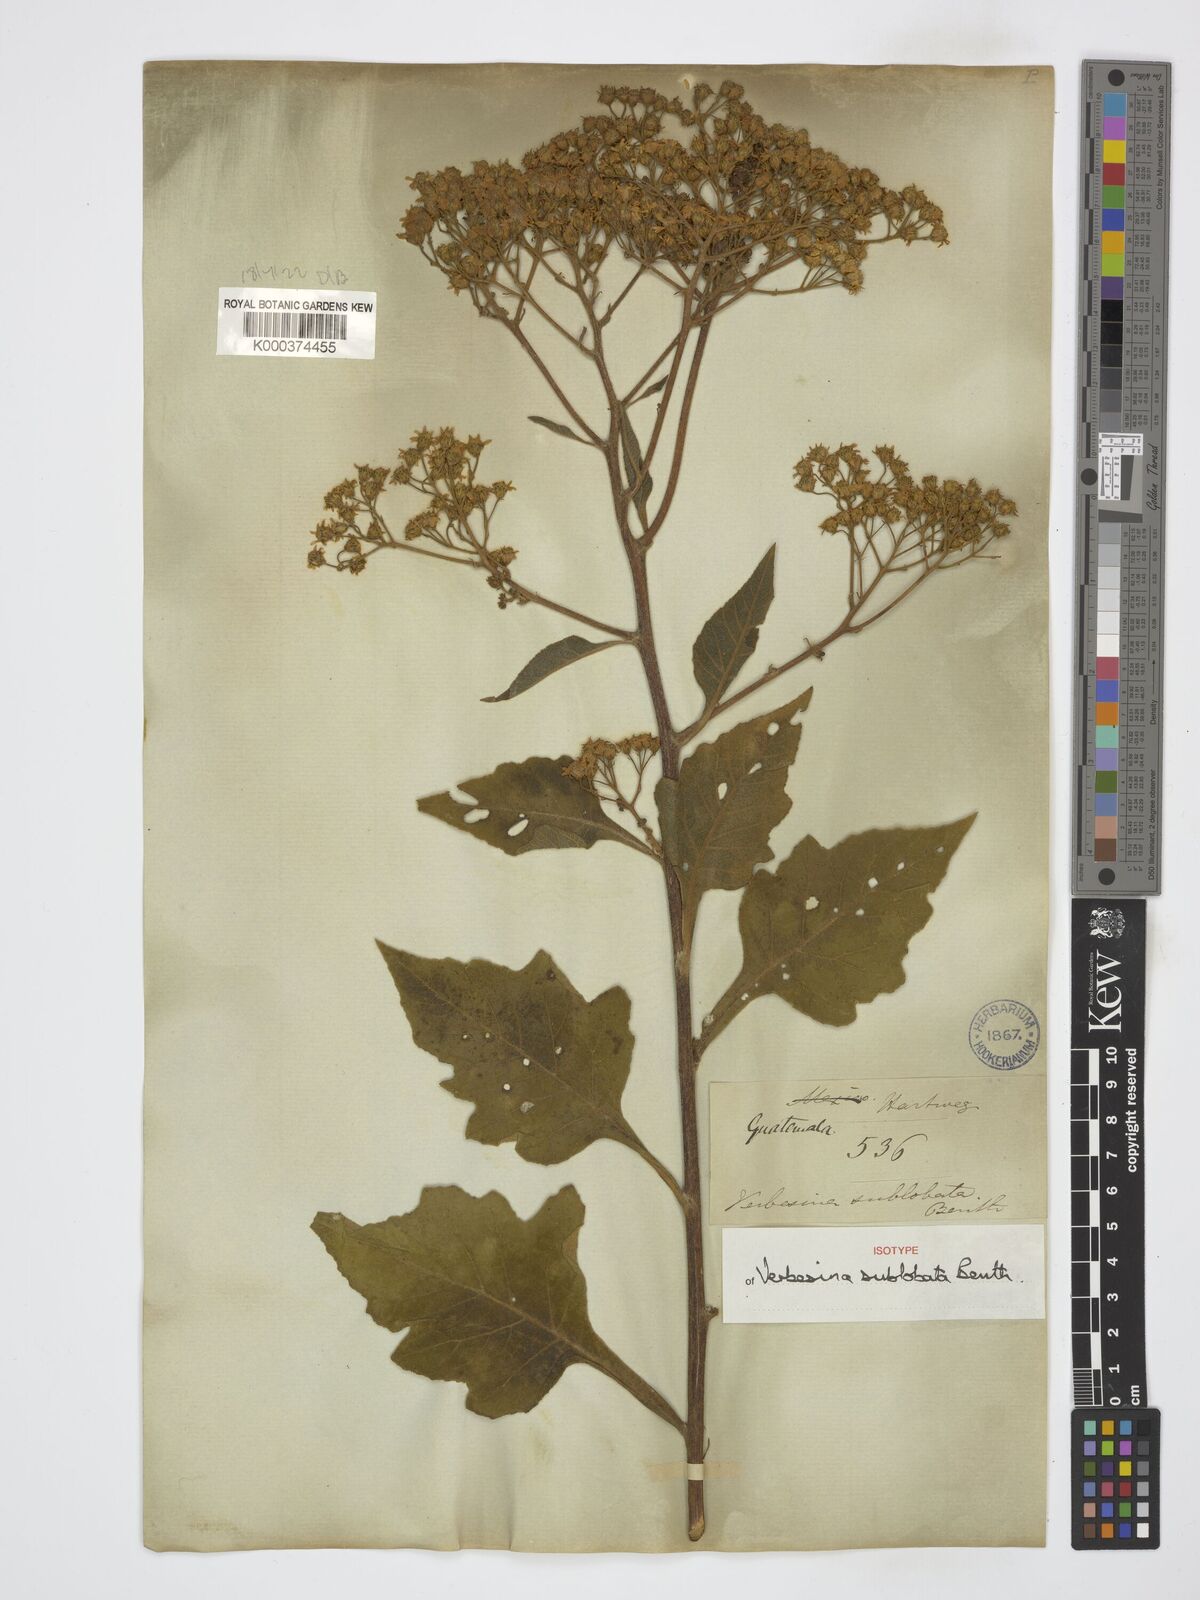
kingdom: Plantae
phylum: Tracheophyta
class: Magnoliopsida
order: Asterales
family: Asteraceae
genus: Verbesina
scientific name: Verbesina turbacensis
